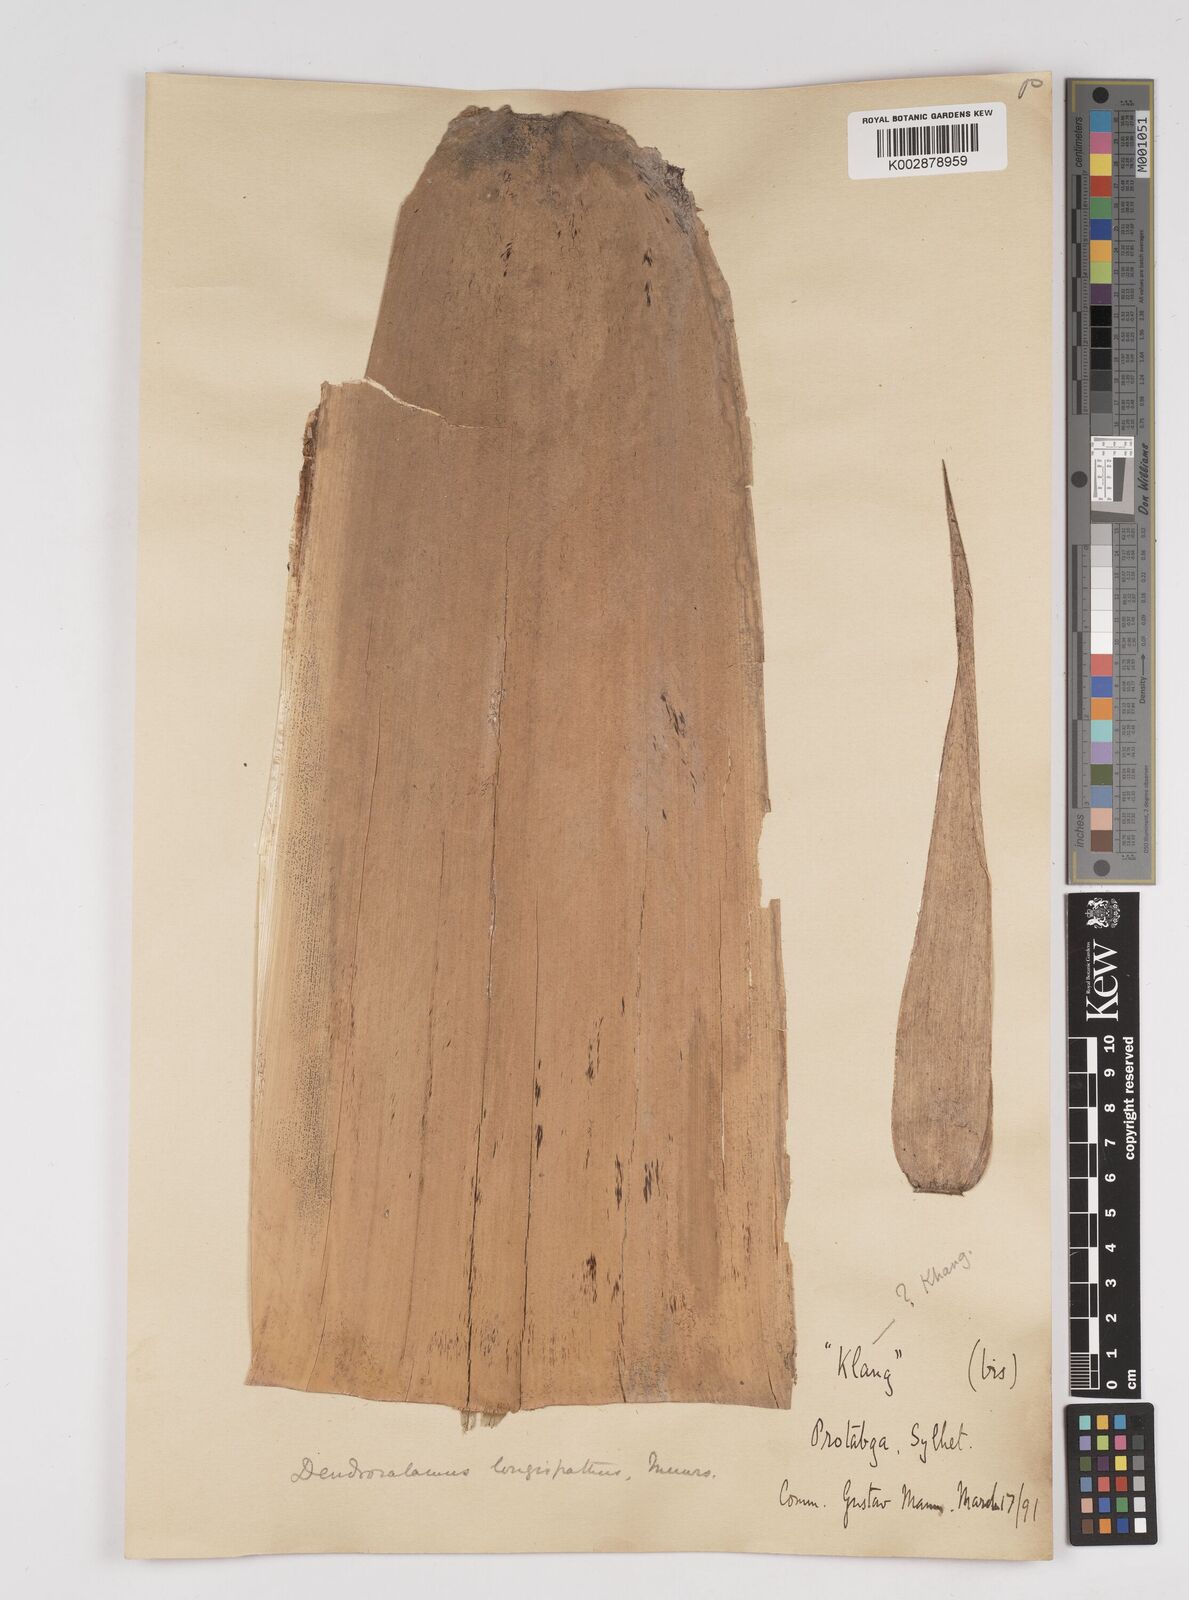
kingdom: Plantae
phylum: Tracheophyta
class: Liliopsida
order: Poales
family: Poaceae
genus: Dendrocalamus
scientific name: Dendrocalamus longispathus
